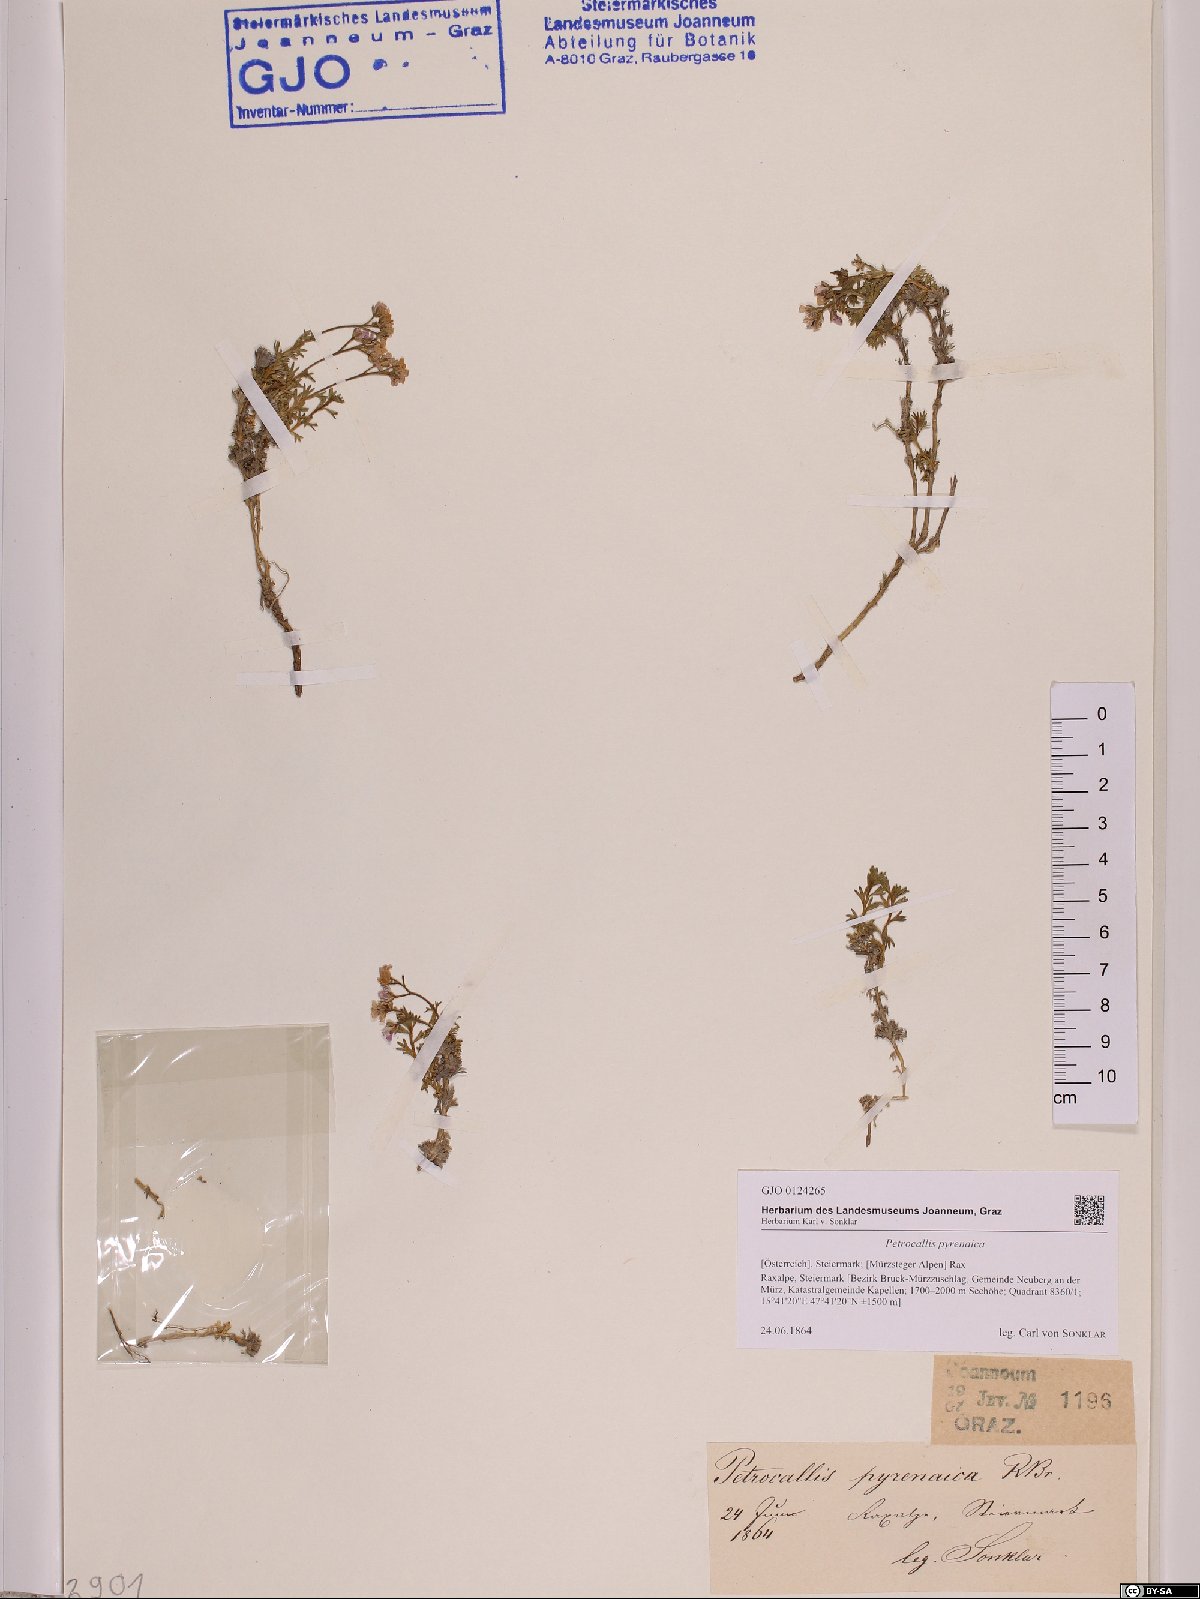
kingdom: Plantae
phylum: Tracheophyta
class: Magnoliopsida
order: Brassicales
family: Brassicaceae
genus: Petrocallis
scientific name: Petrocallis pyrenaica
